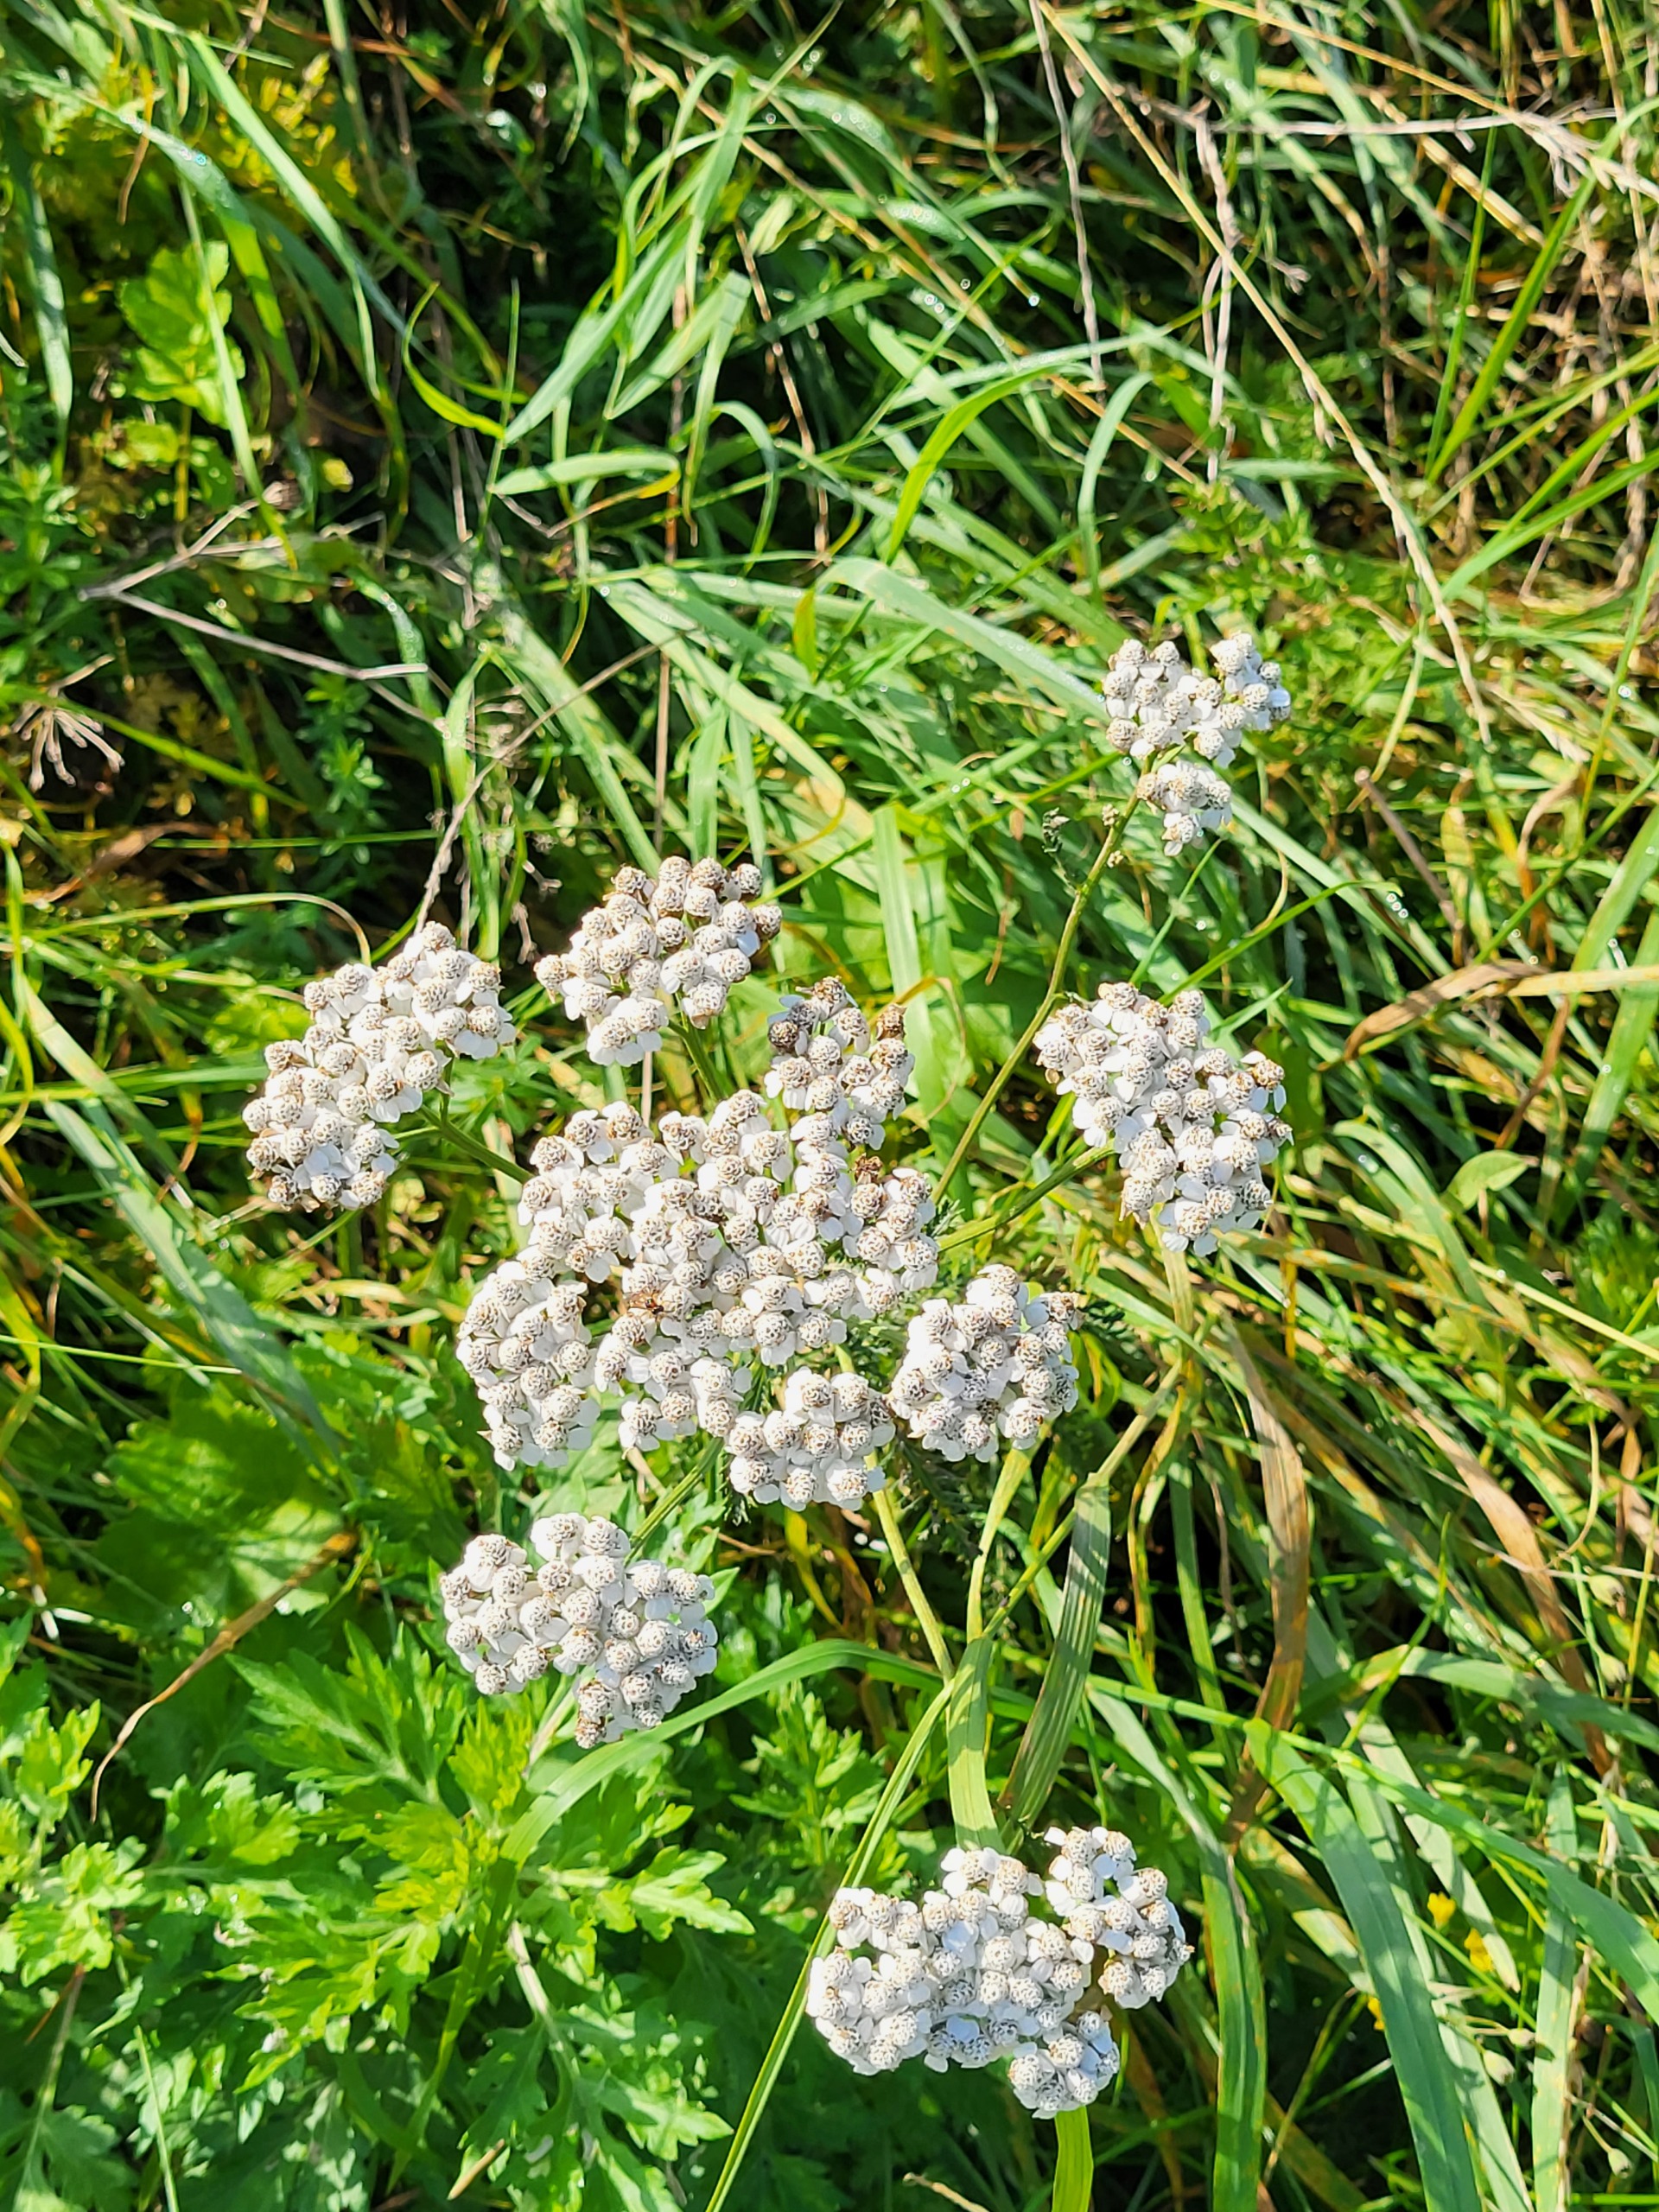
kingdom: Plantae
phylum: Tracheophyta
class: Magnoliopsida
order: Asterales
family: Asteraceae
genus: Achillea
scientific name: Achillea millefolium
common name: Almindelig røllike
